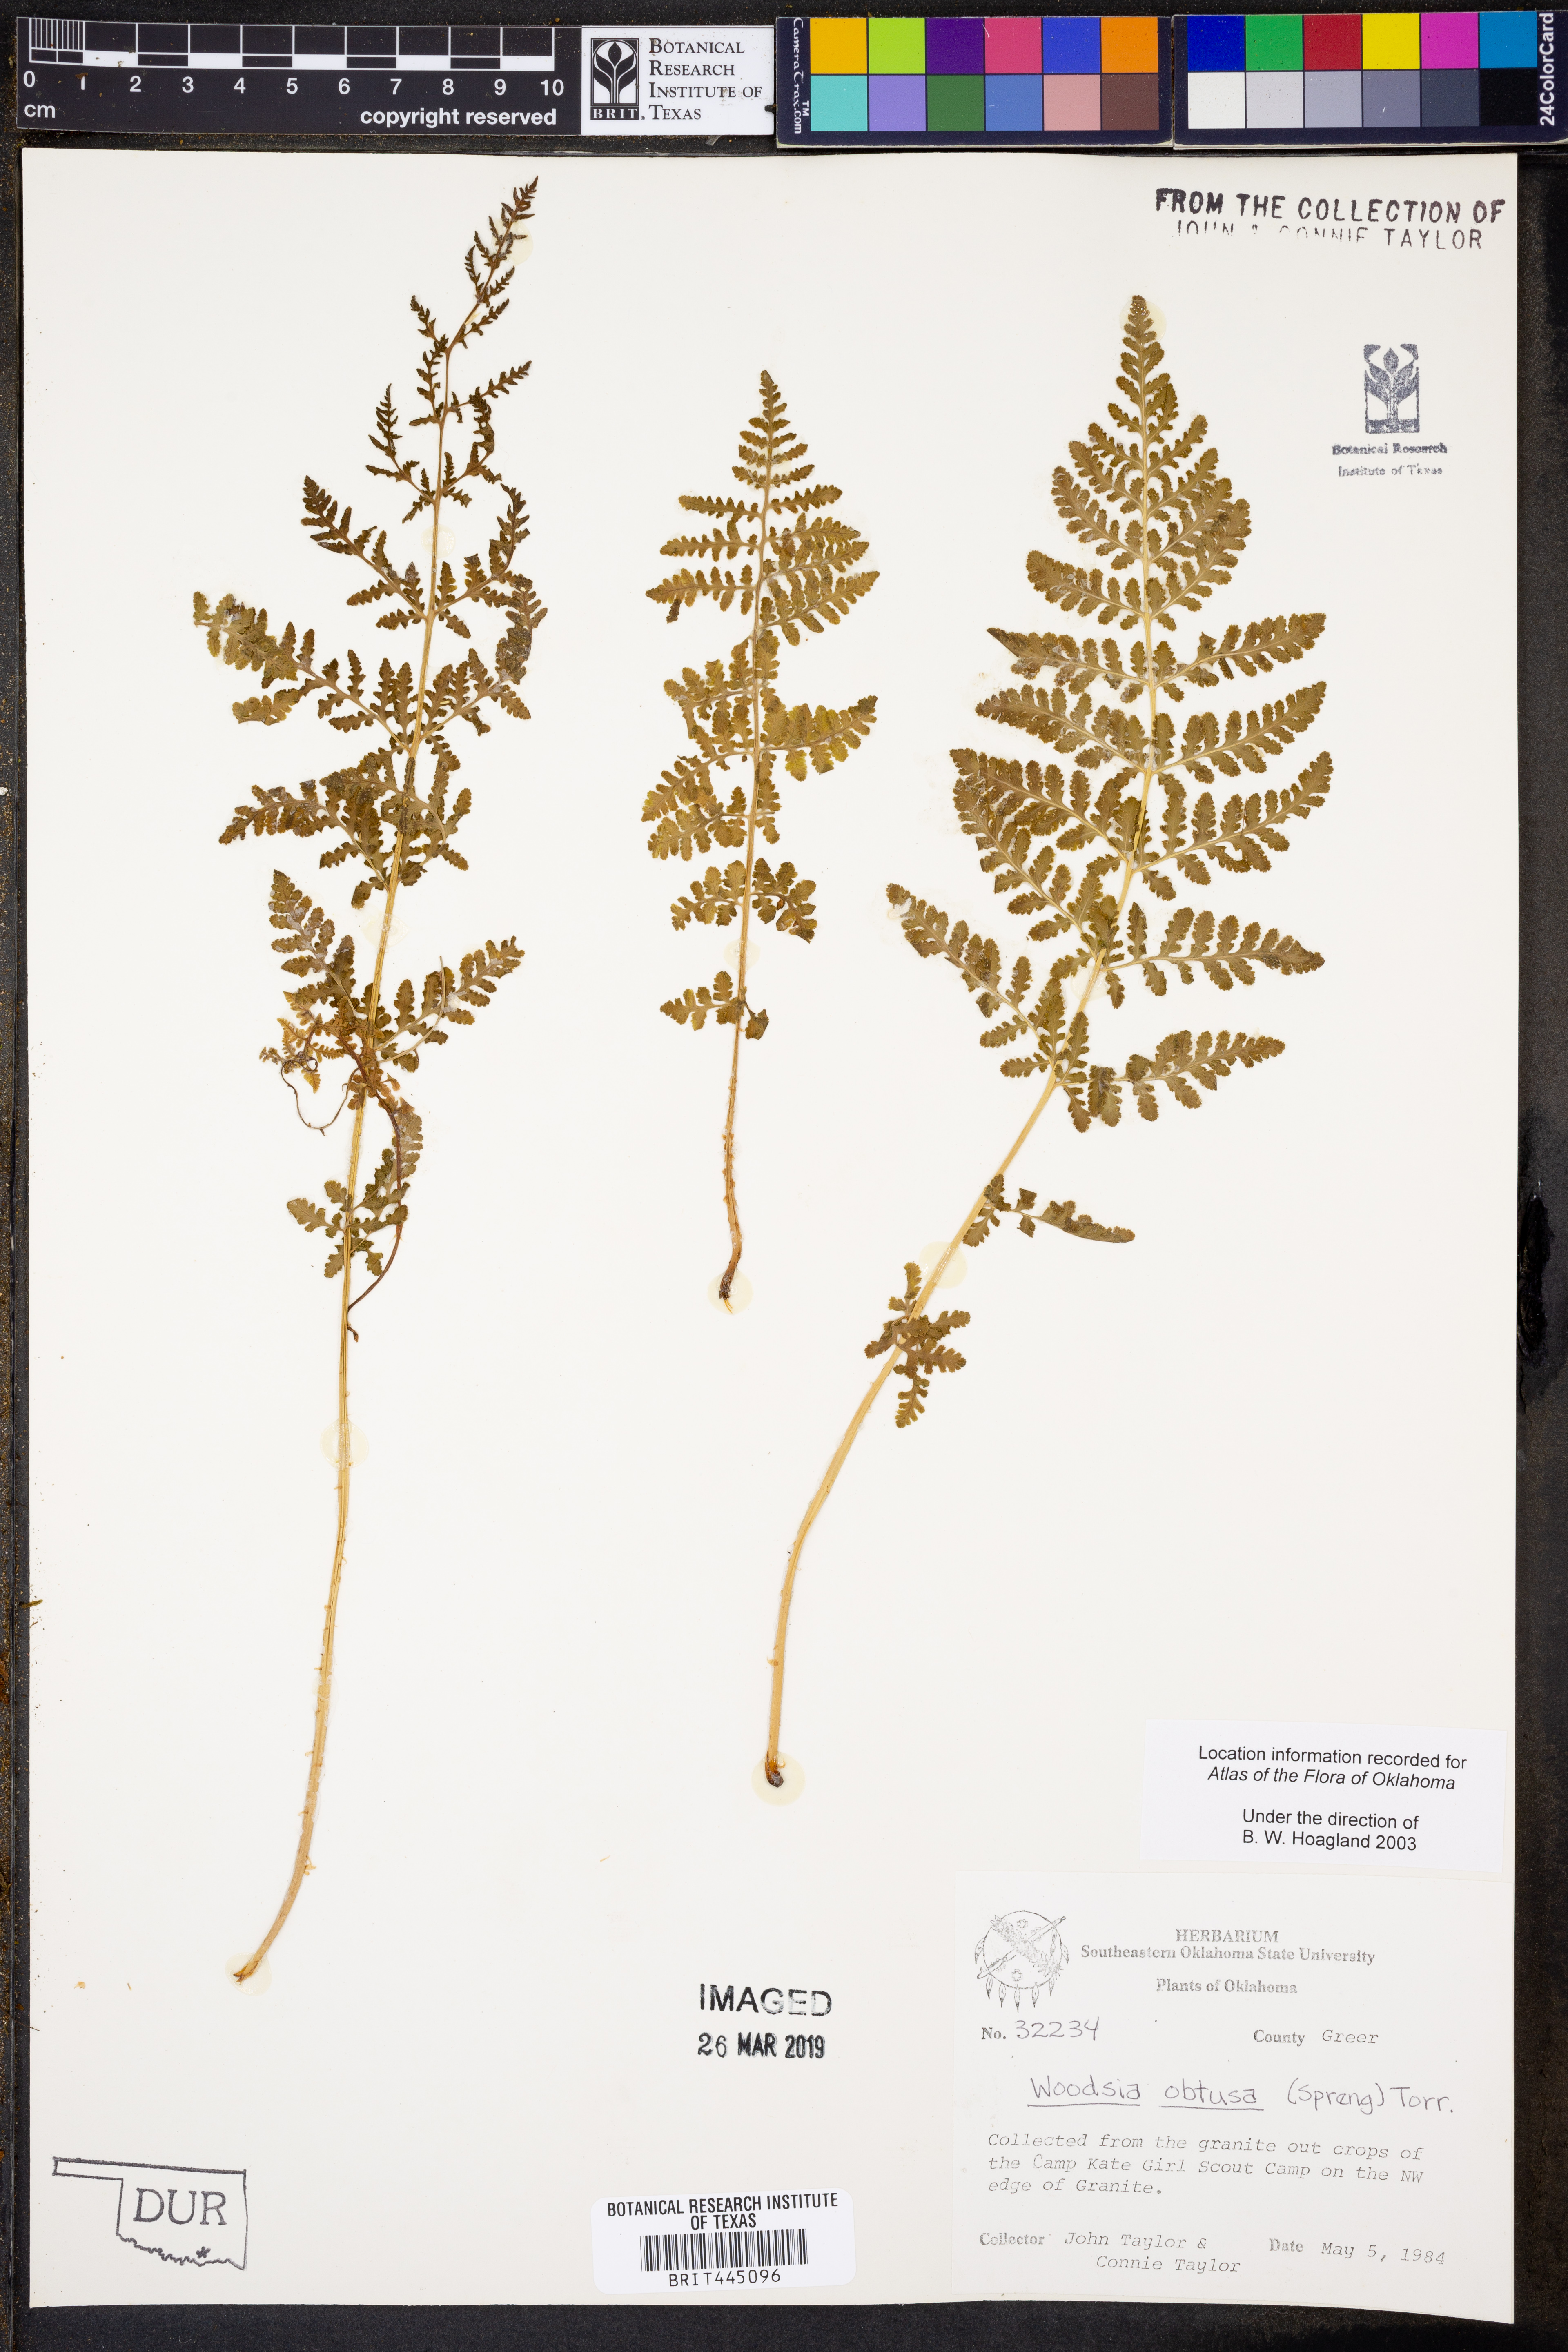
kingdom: Plantae
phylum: Tracheophyta
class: Polypodiopsida
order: Polypodiales
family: Woodsiaceae
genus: Physematium
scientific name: Physematium obtusum
